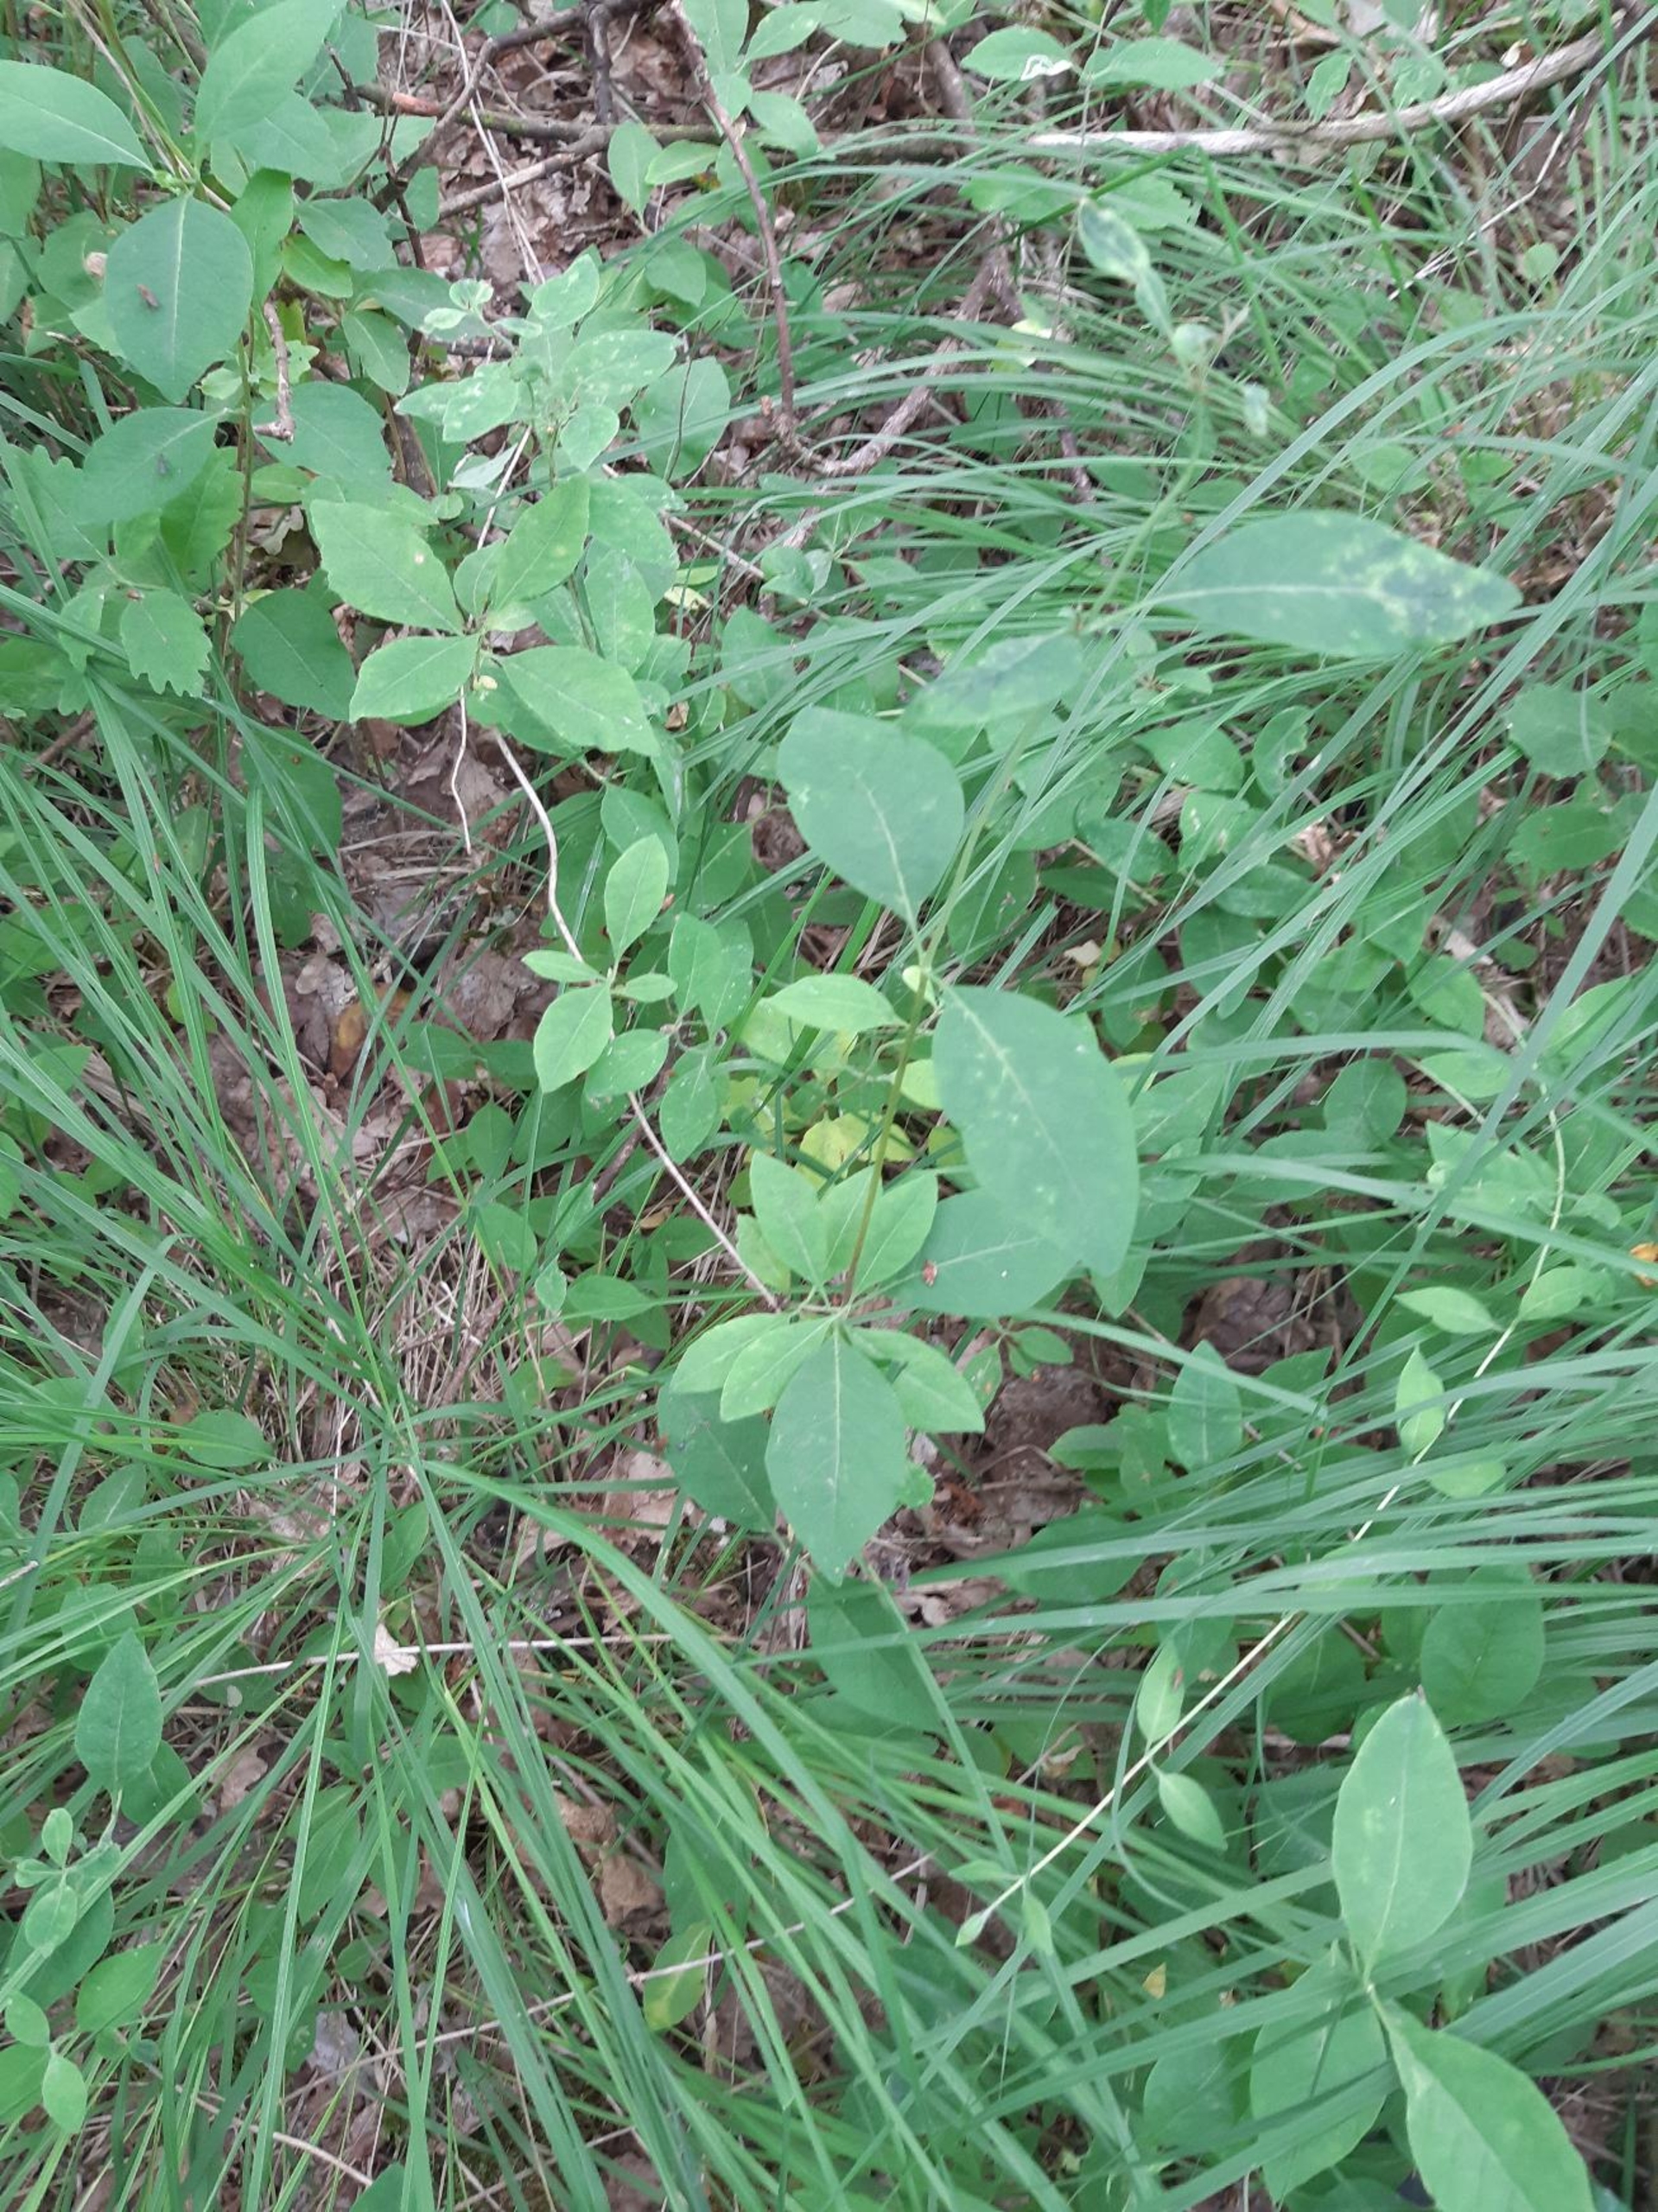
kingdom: Plantae
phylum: Tracheophyta
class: Magnoliopsida
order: Dipsacales
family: Caprifoliaceae
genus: Lonicera
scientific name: Lonicera periclymenum
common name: Almindelig gedeblad
